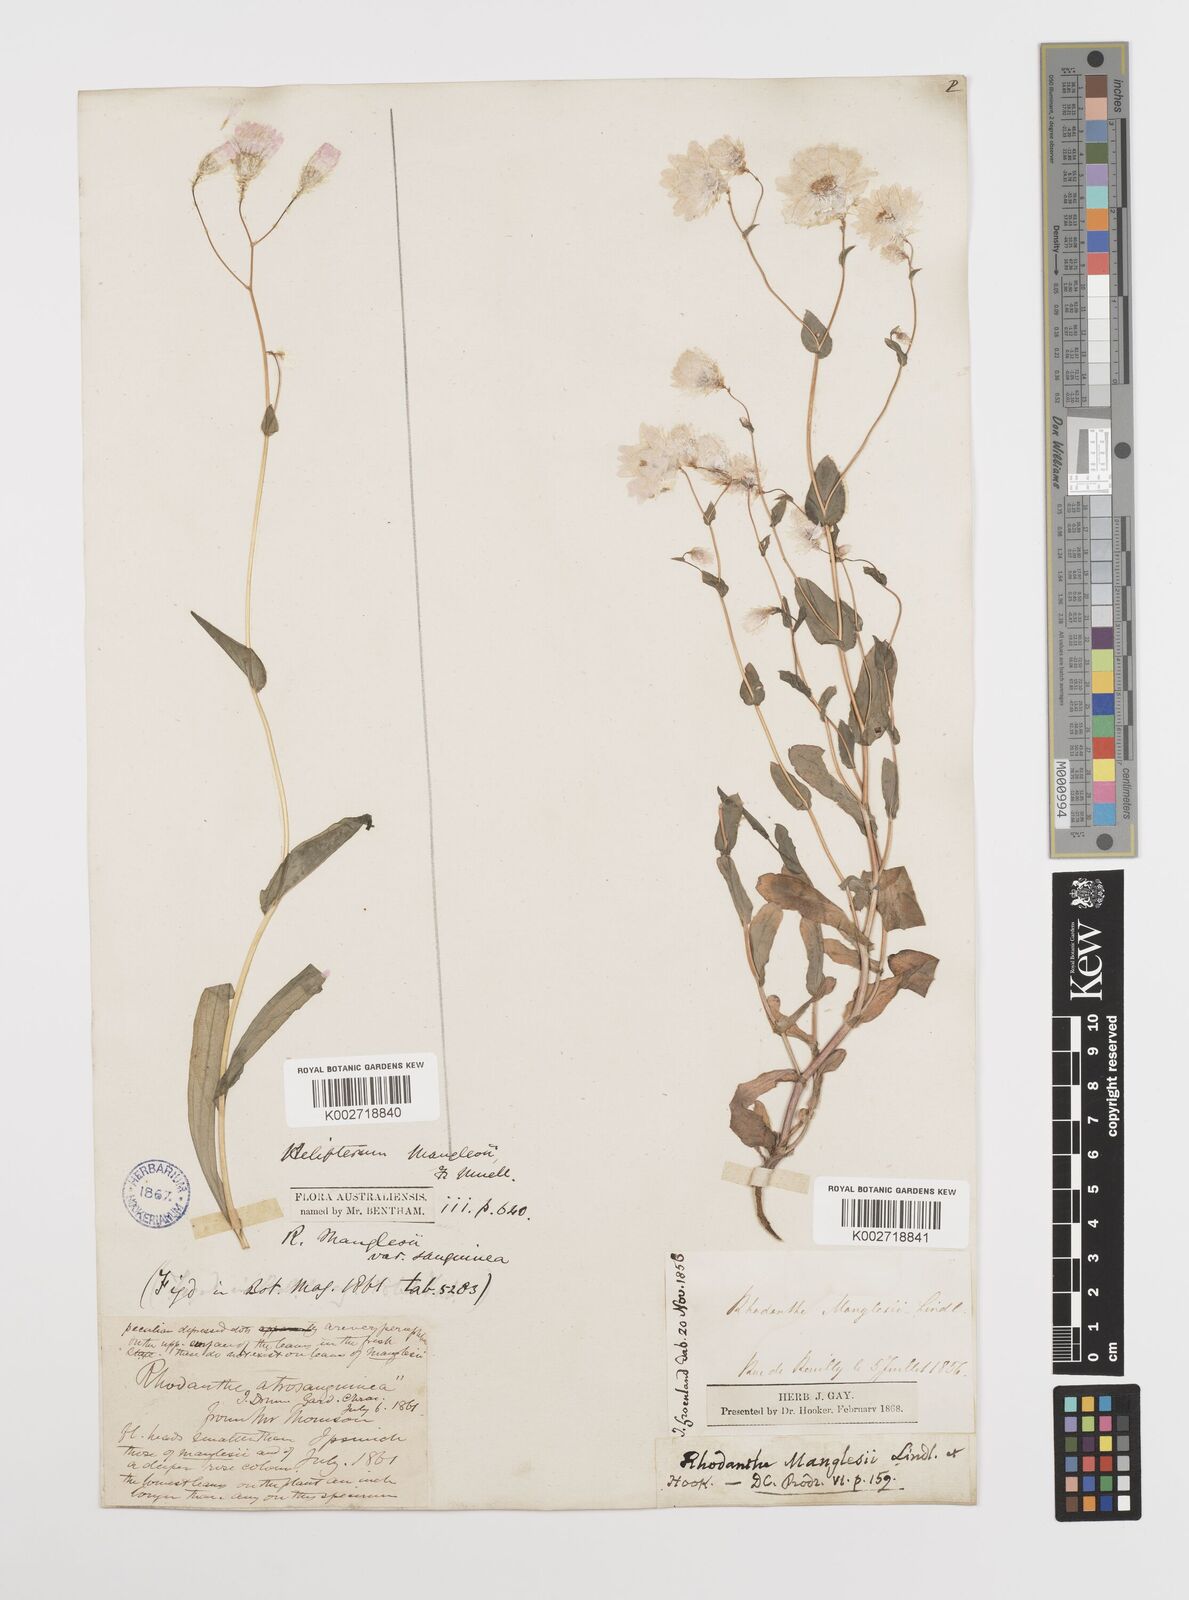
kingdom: Plantae
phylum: Tracheophyta
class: Magnoliopsida
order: Asterales
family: Asteraceae
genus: Rhodanthe
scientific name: Rhodanthe manglesii
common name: Pink sunray
